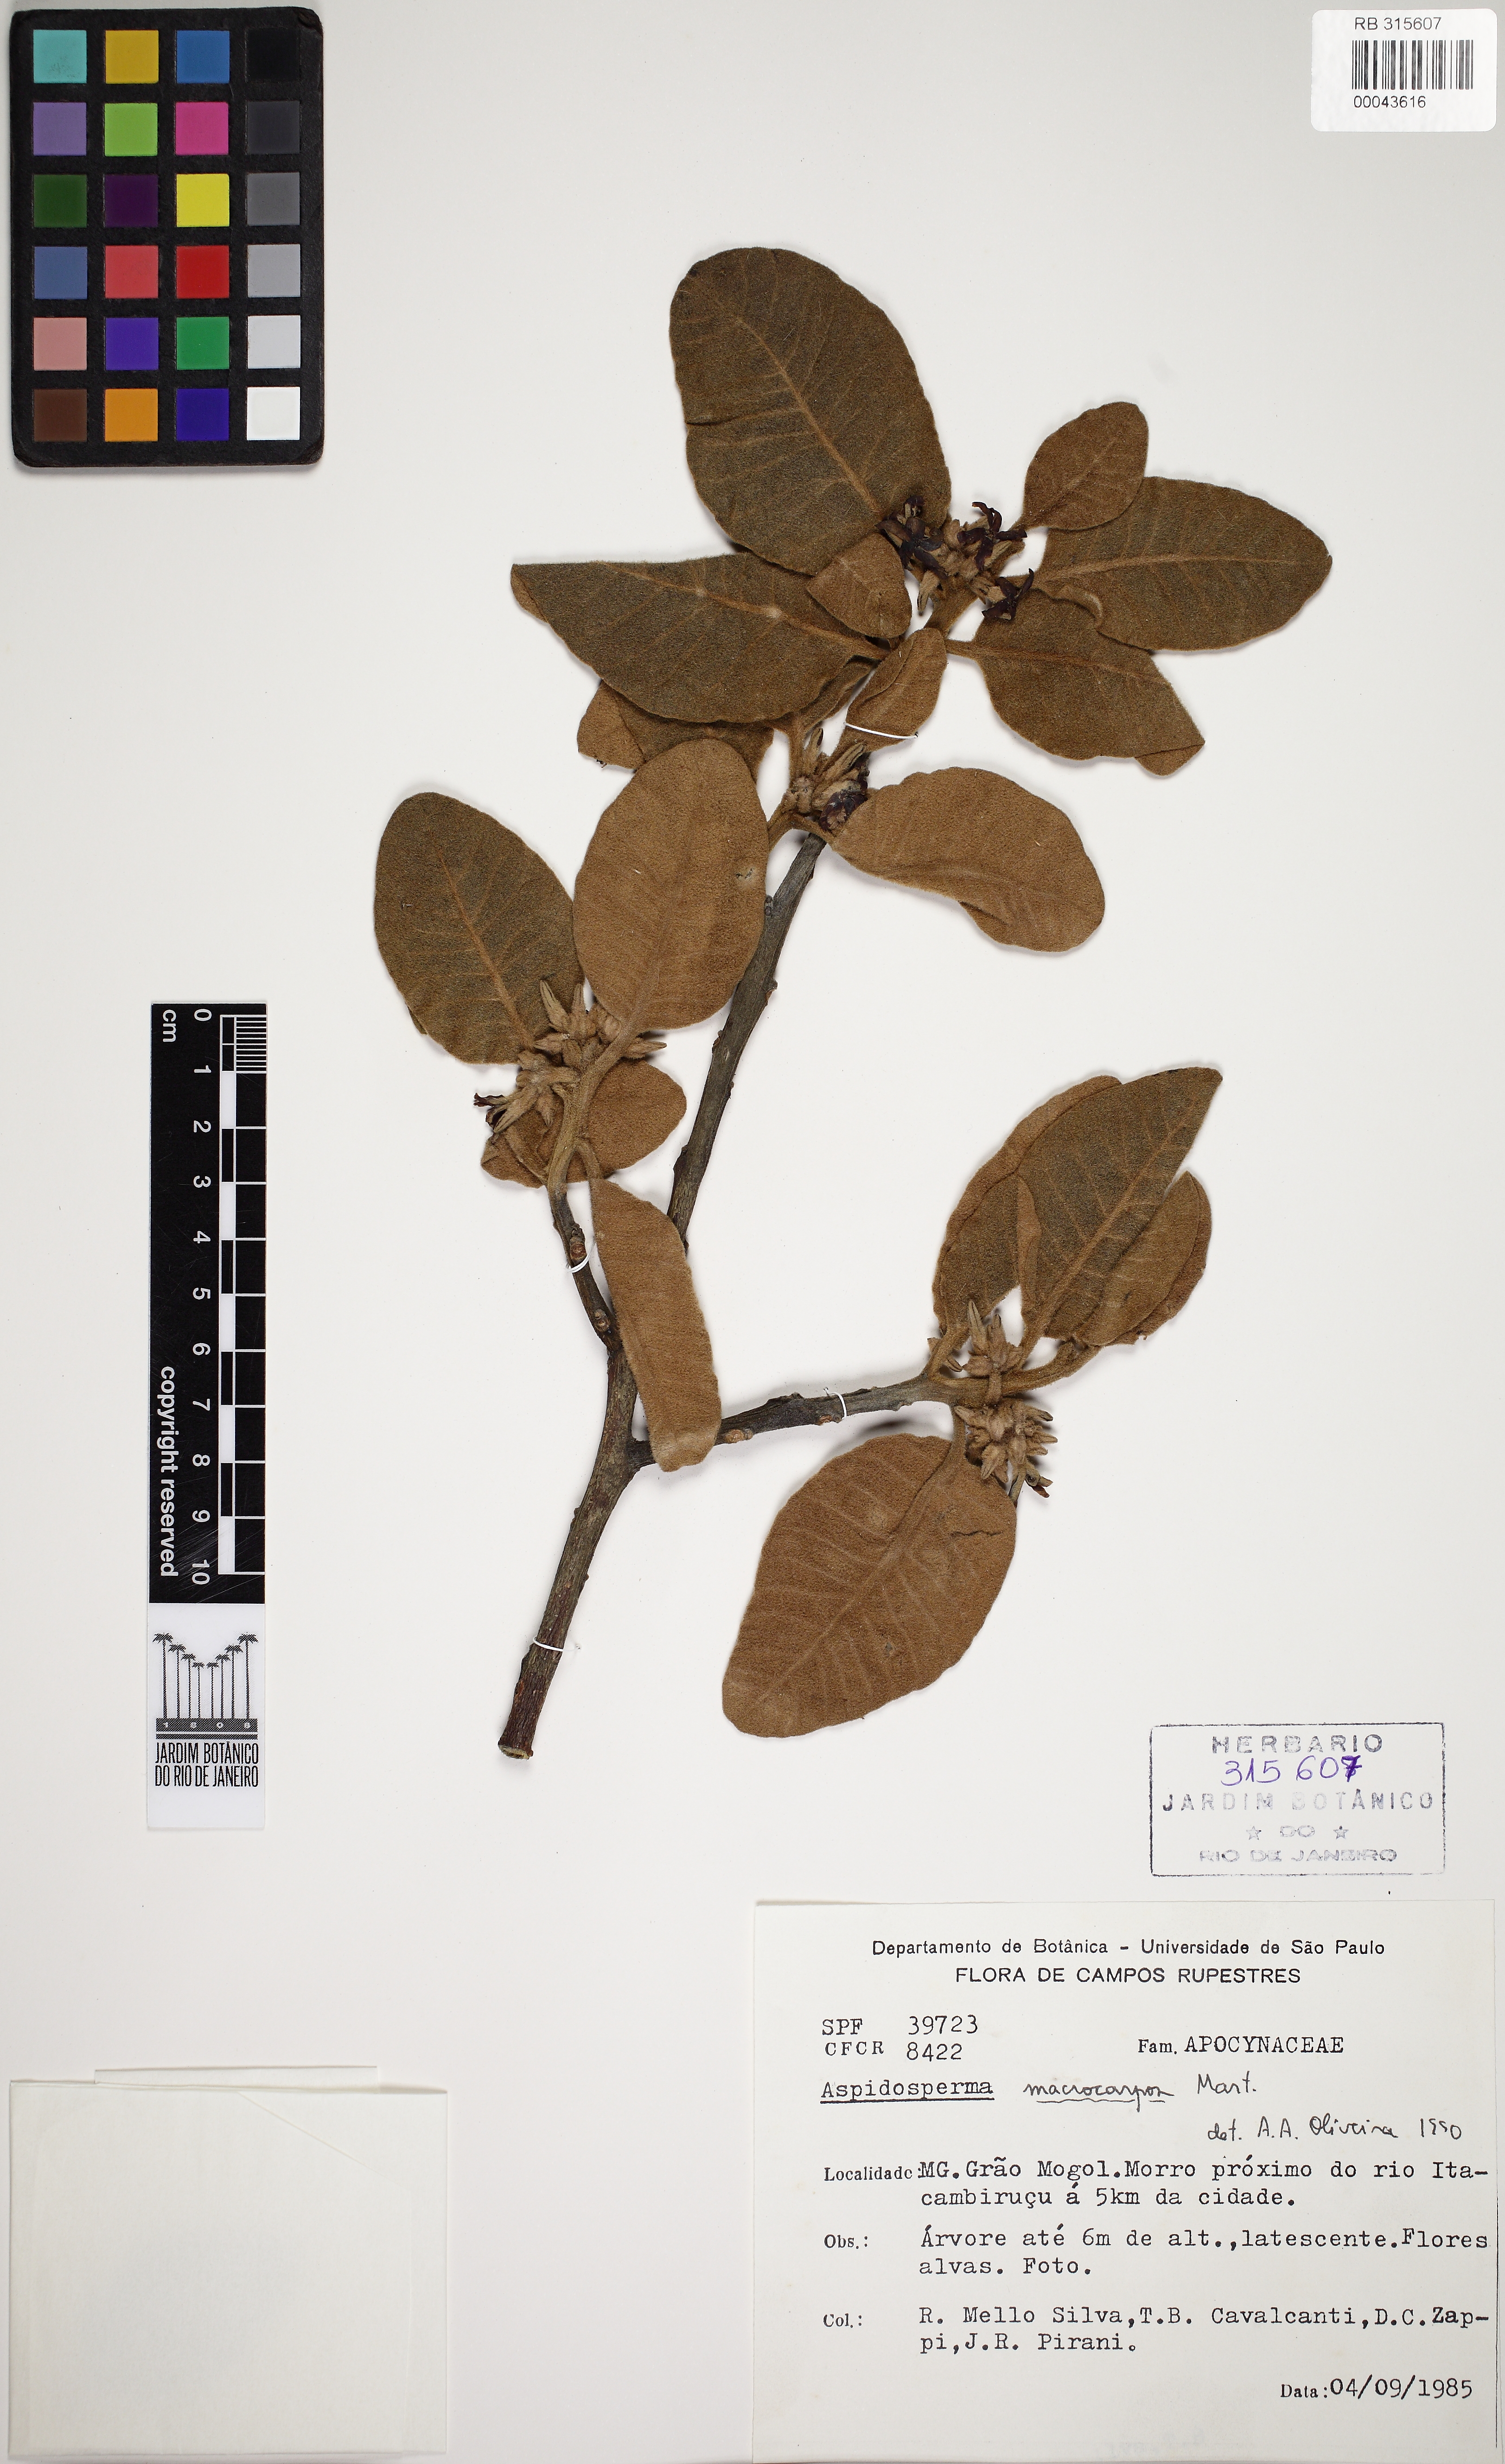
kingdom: Plantae
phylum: Tracheophyta
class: Magnoliopsida
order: Gentianales
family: Apocynaceae
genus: Aspidosperma
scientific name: Aspidosperma macrocarpon
